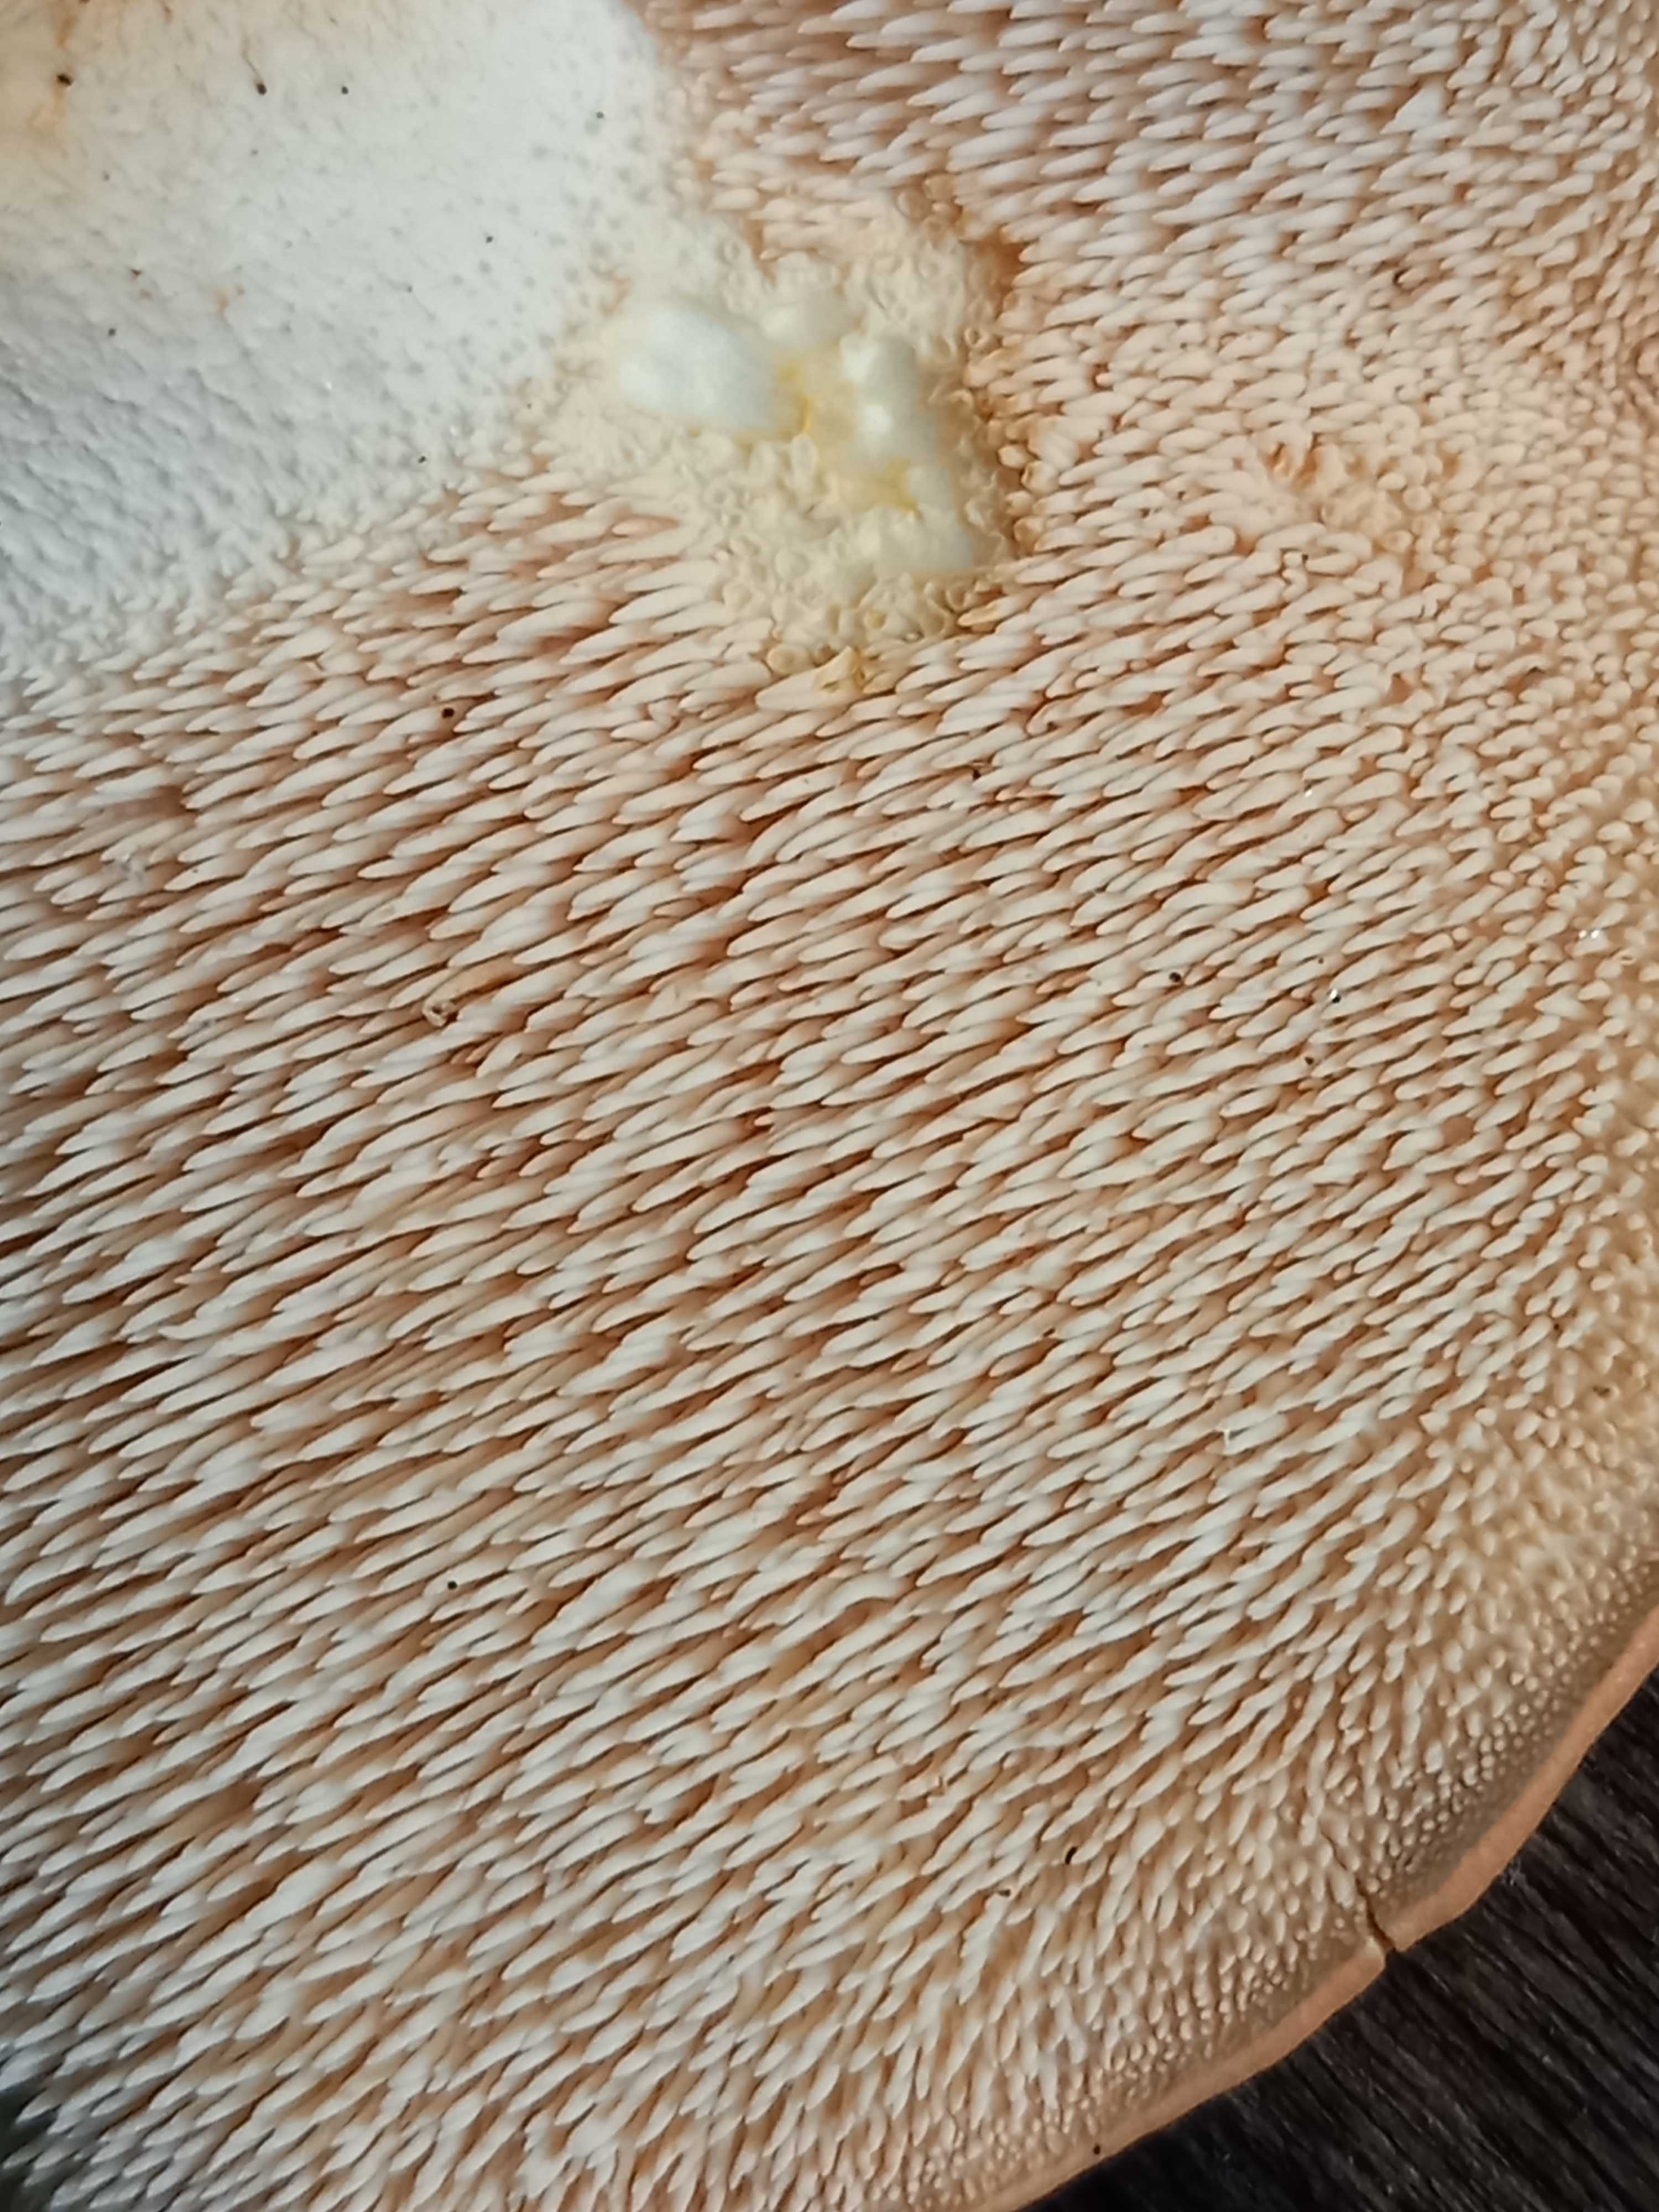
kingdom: Fungi
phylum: Basidiomycota
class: Agaricomycetes
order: Cantharellales
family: Hydnaceae
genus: Hydnum
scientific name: Hydnum
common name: pigsvamp
